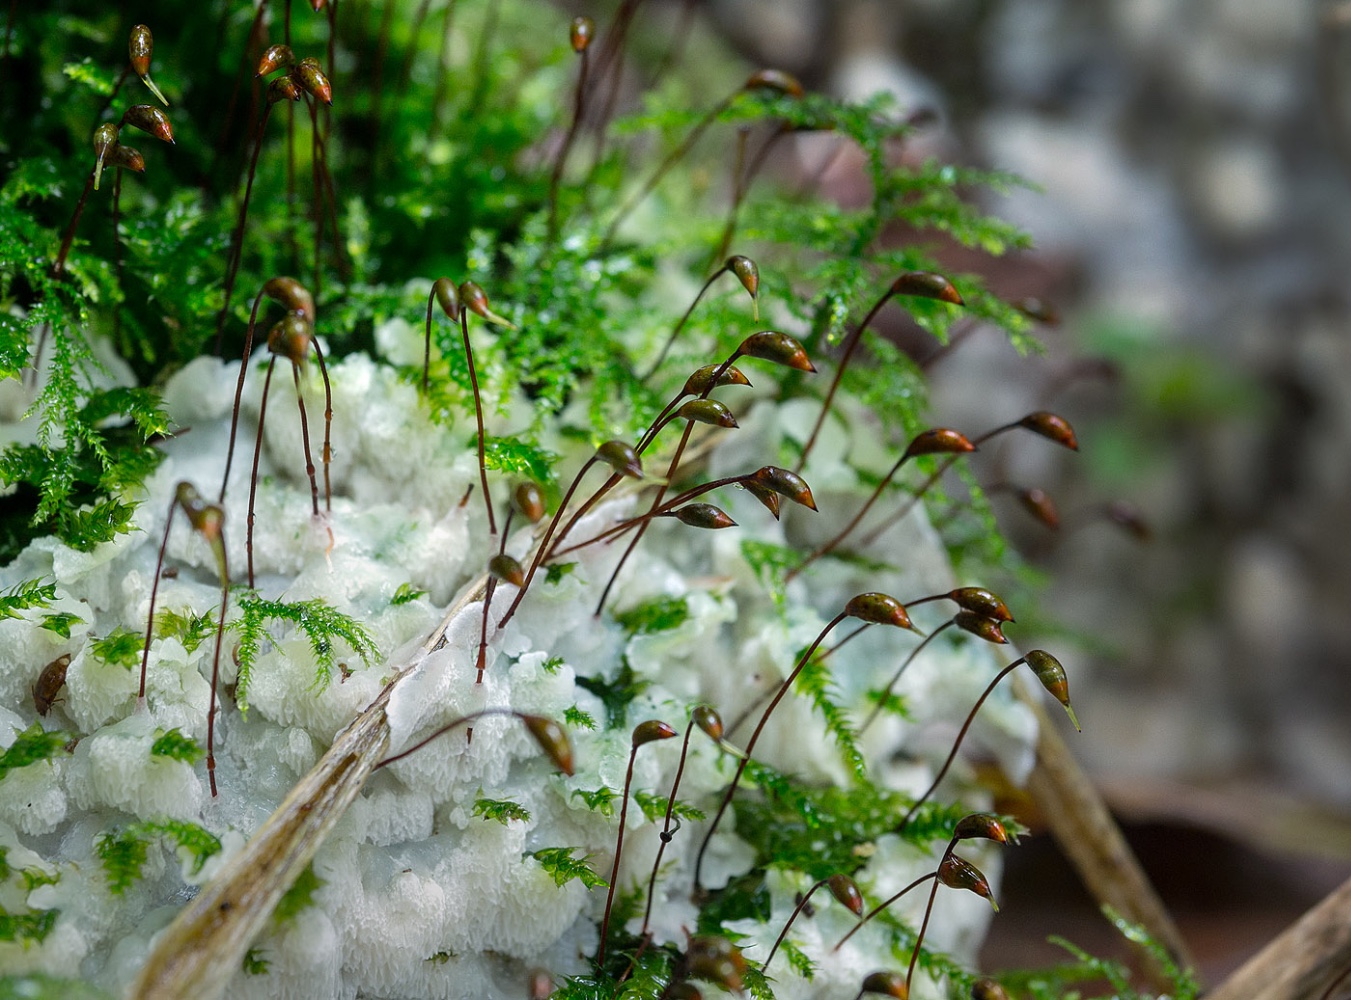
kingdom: Fungi
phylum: Basidiomycota
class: Agaricomycetes
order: Polyporales
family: Meruliaceae
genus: Physisporinus
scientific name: Physisporinus vitreus
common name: mastesvamp
